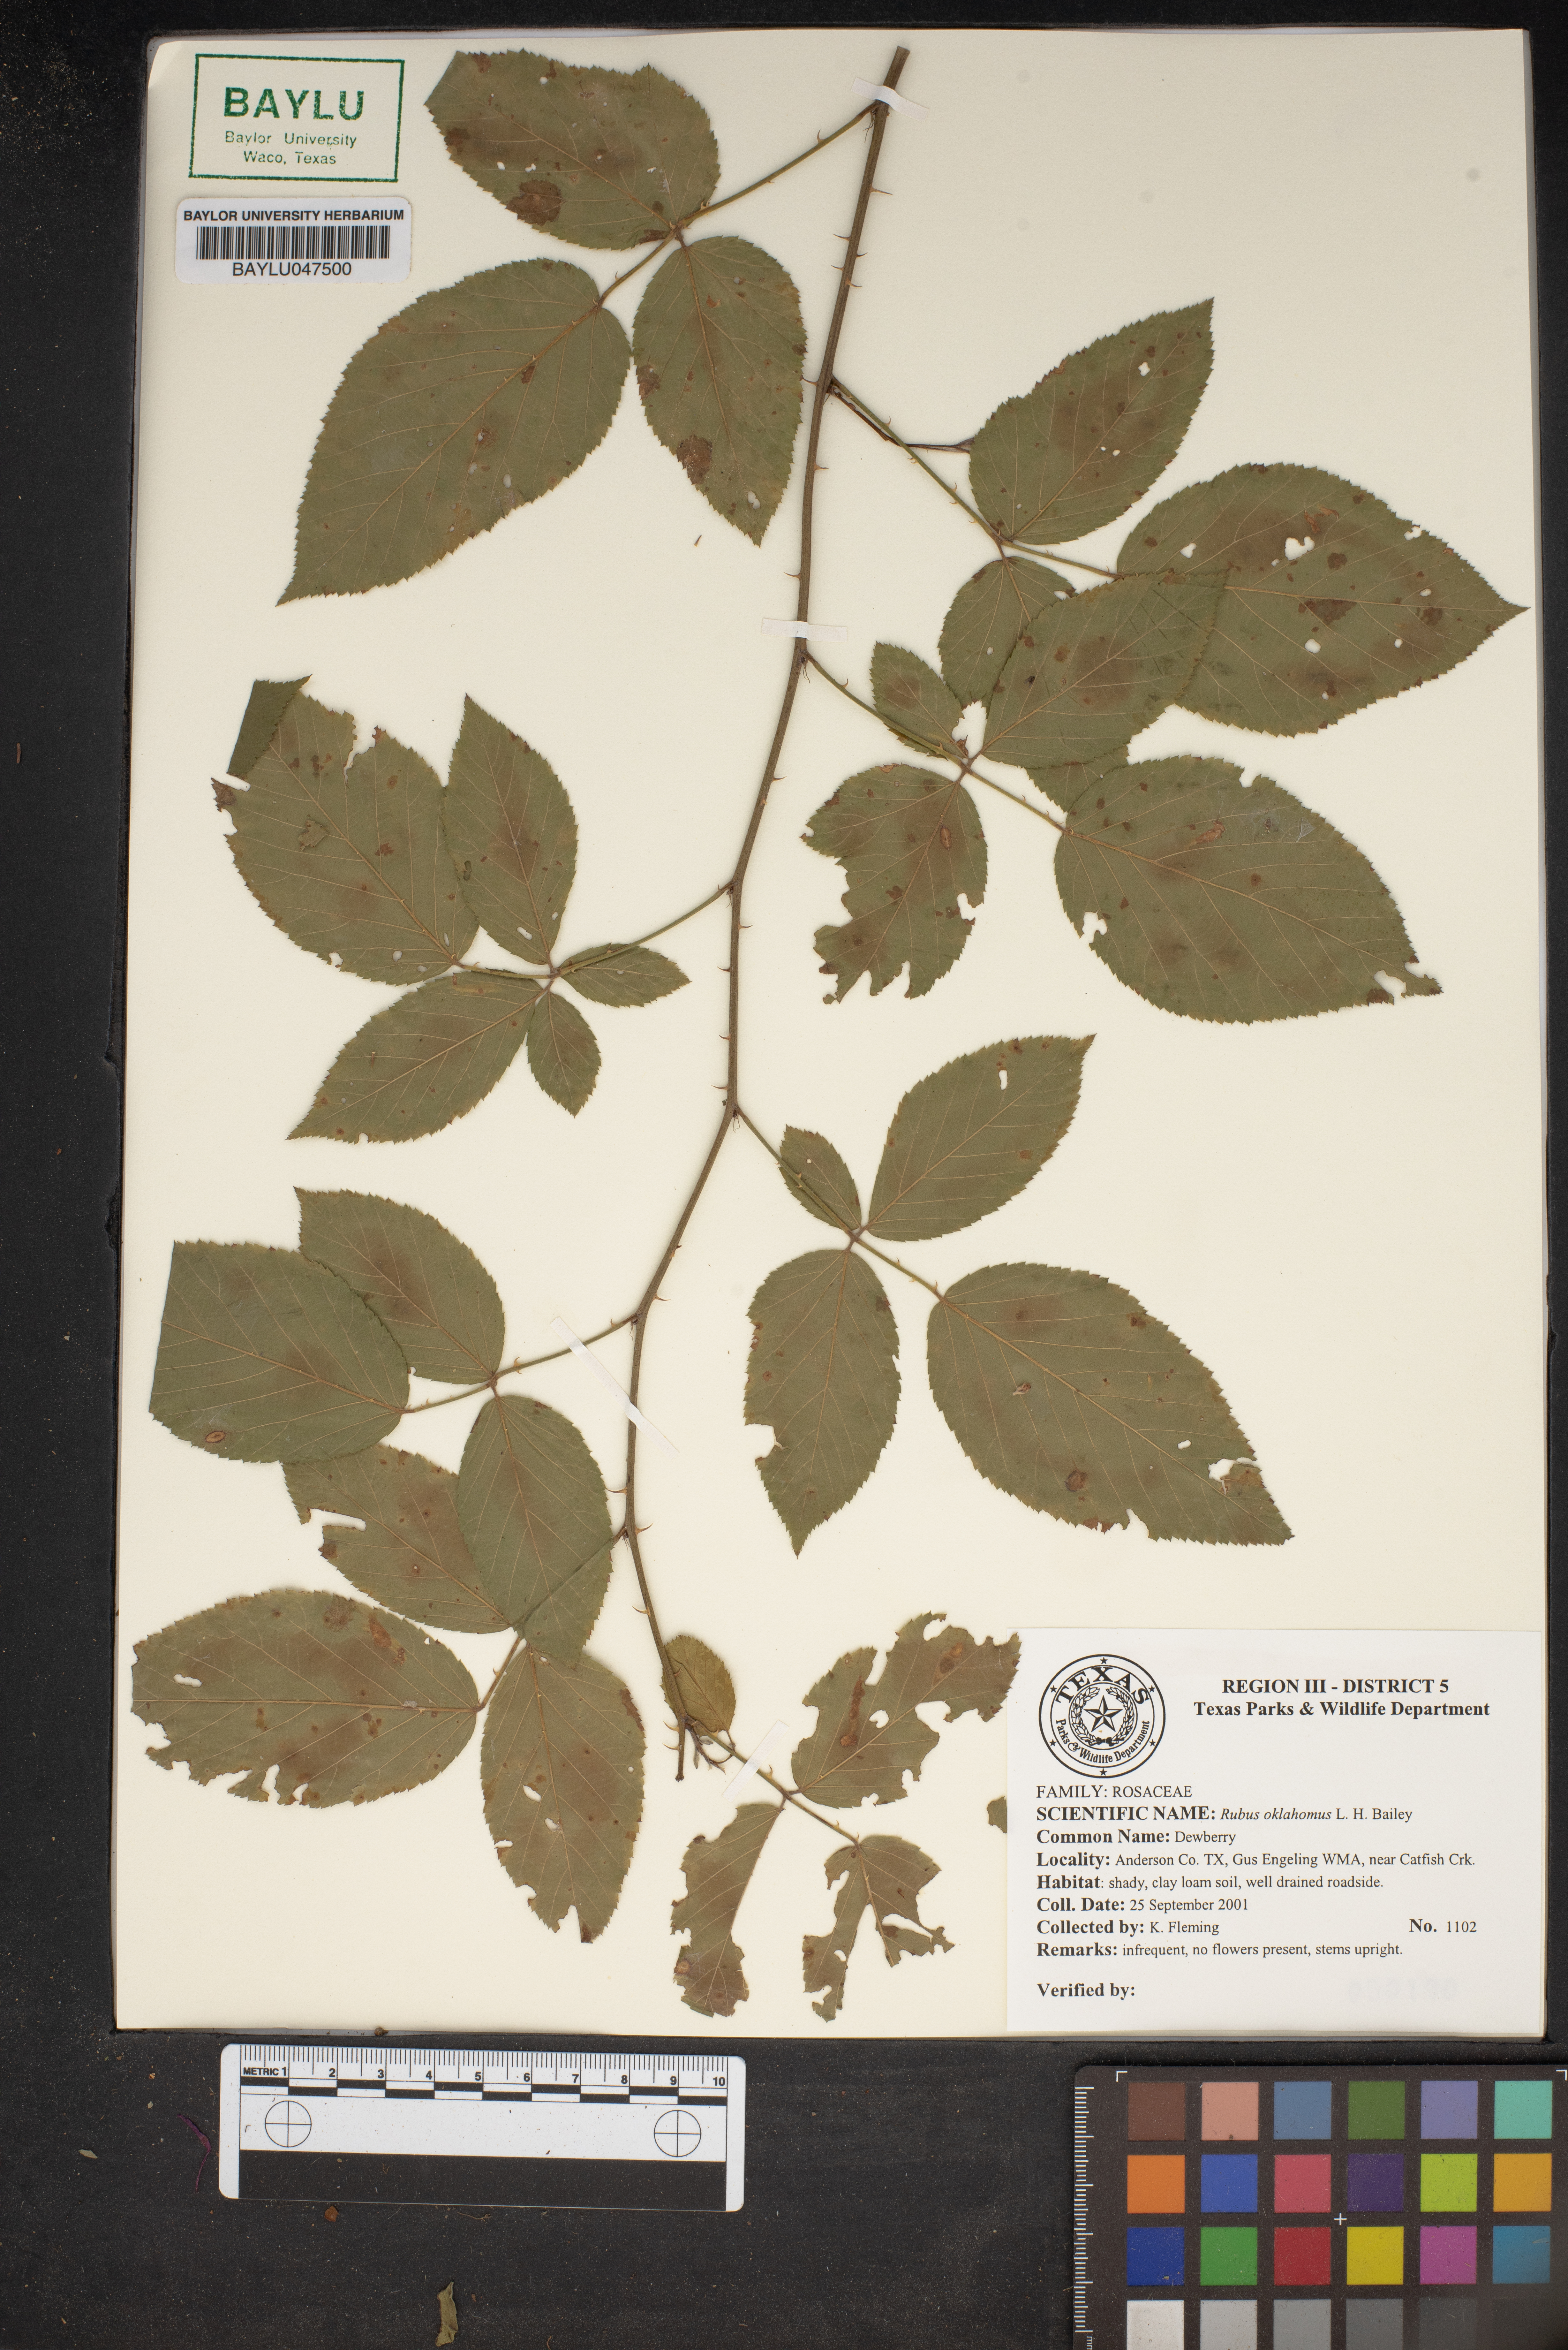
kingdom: Plantae
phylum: Tracheophyta
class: Magnoliopsida
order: Rosales
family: Rosaceae
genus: Rubus
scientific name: Rubus oklahomus
